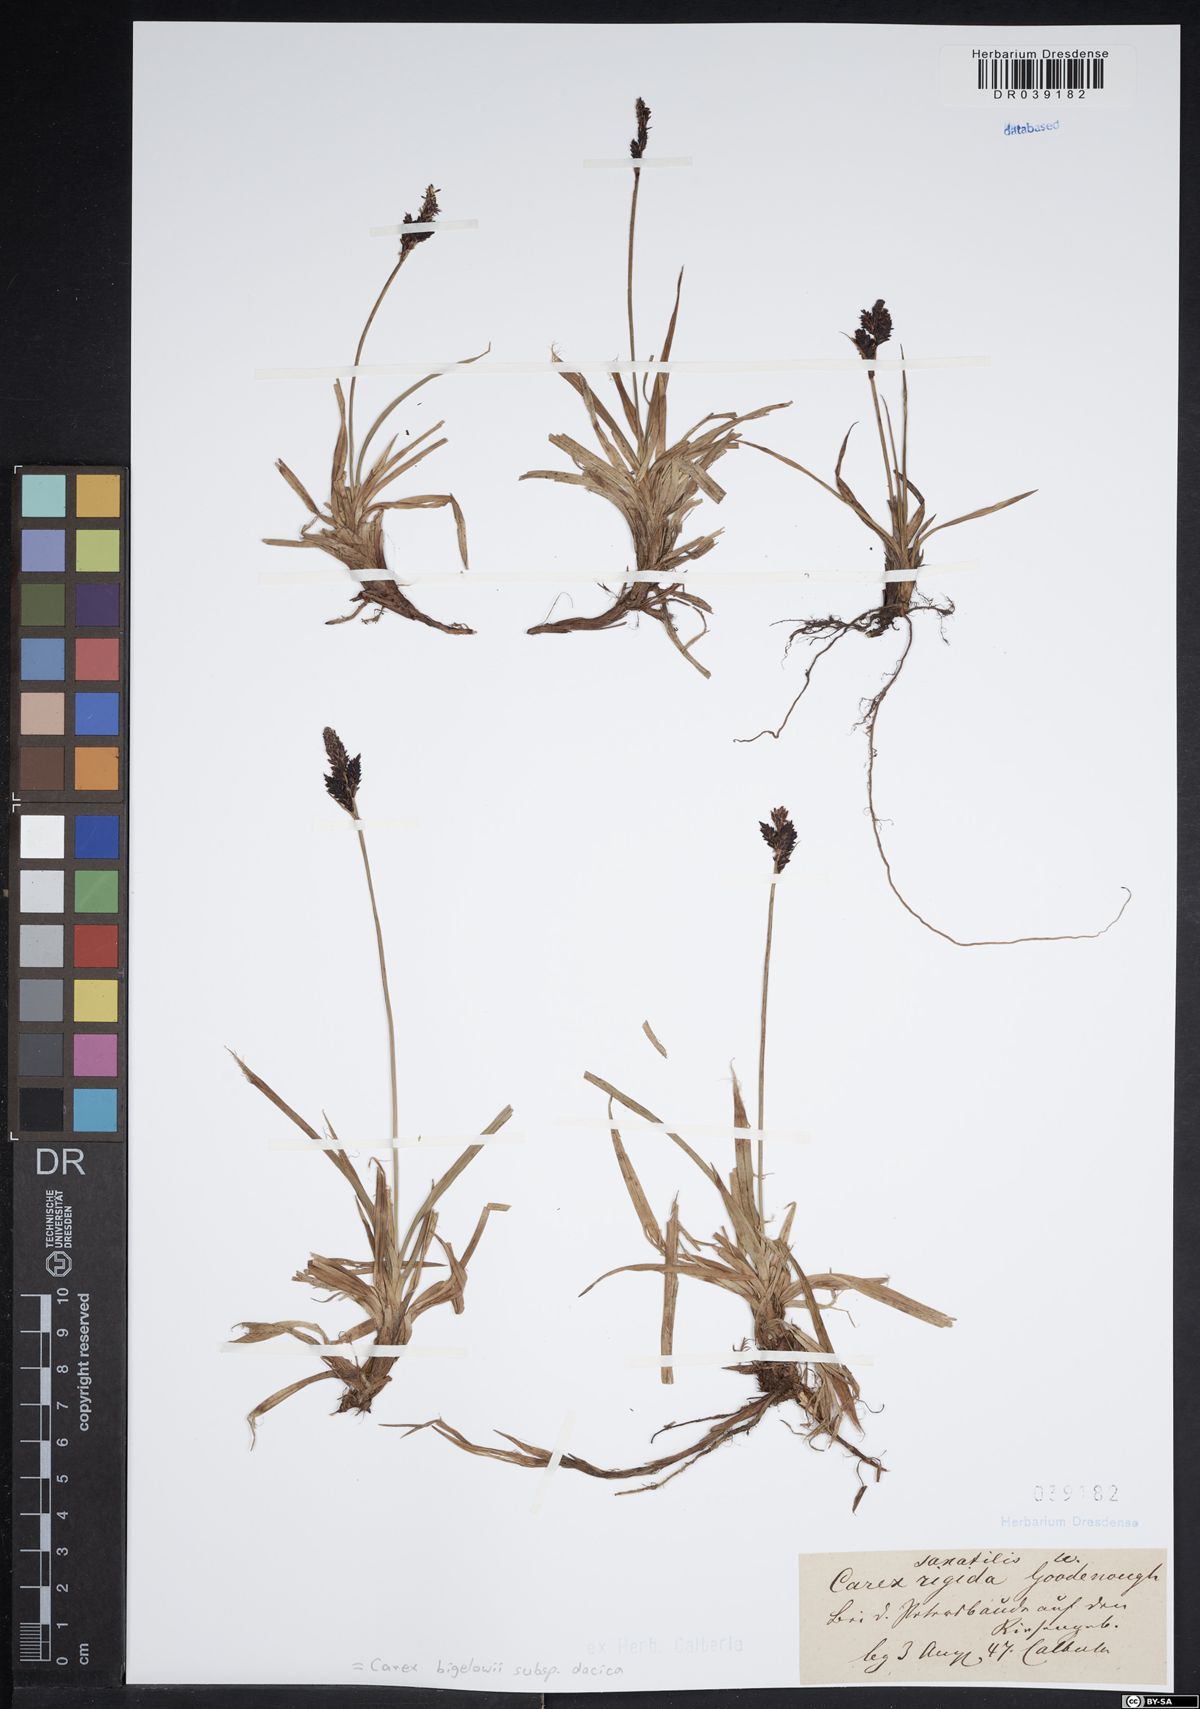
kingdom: Plantae
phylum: Tracheophyta
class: Liliopsida
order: Poales
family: Cyperaceae
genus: Carex
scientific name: Carex dacica
